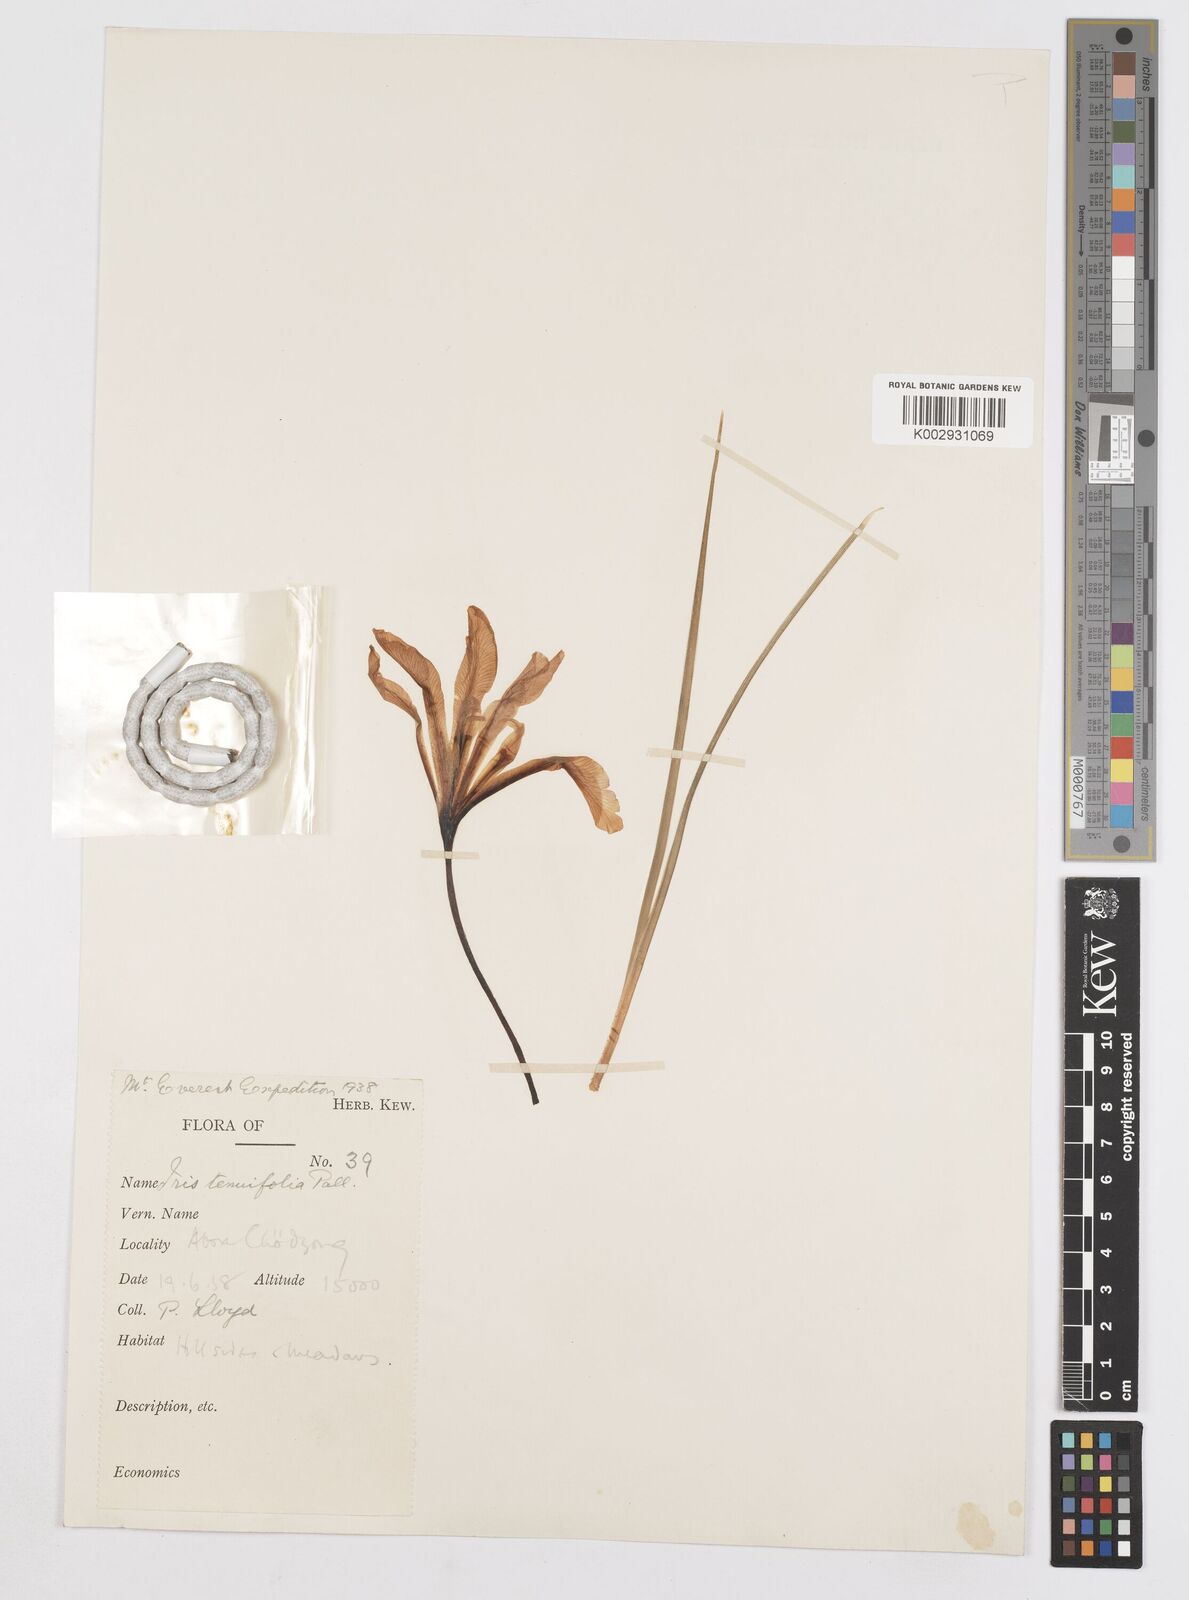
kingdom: Plantae
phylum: Tracheophyta
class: Liliopsida
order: Asparagales
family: Iridaceae
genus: Iris
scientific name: Iris tenuifolia
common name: Slender-leaf iris
